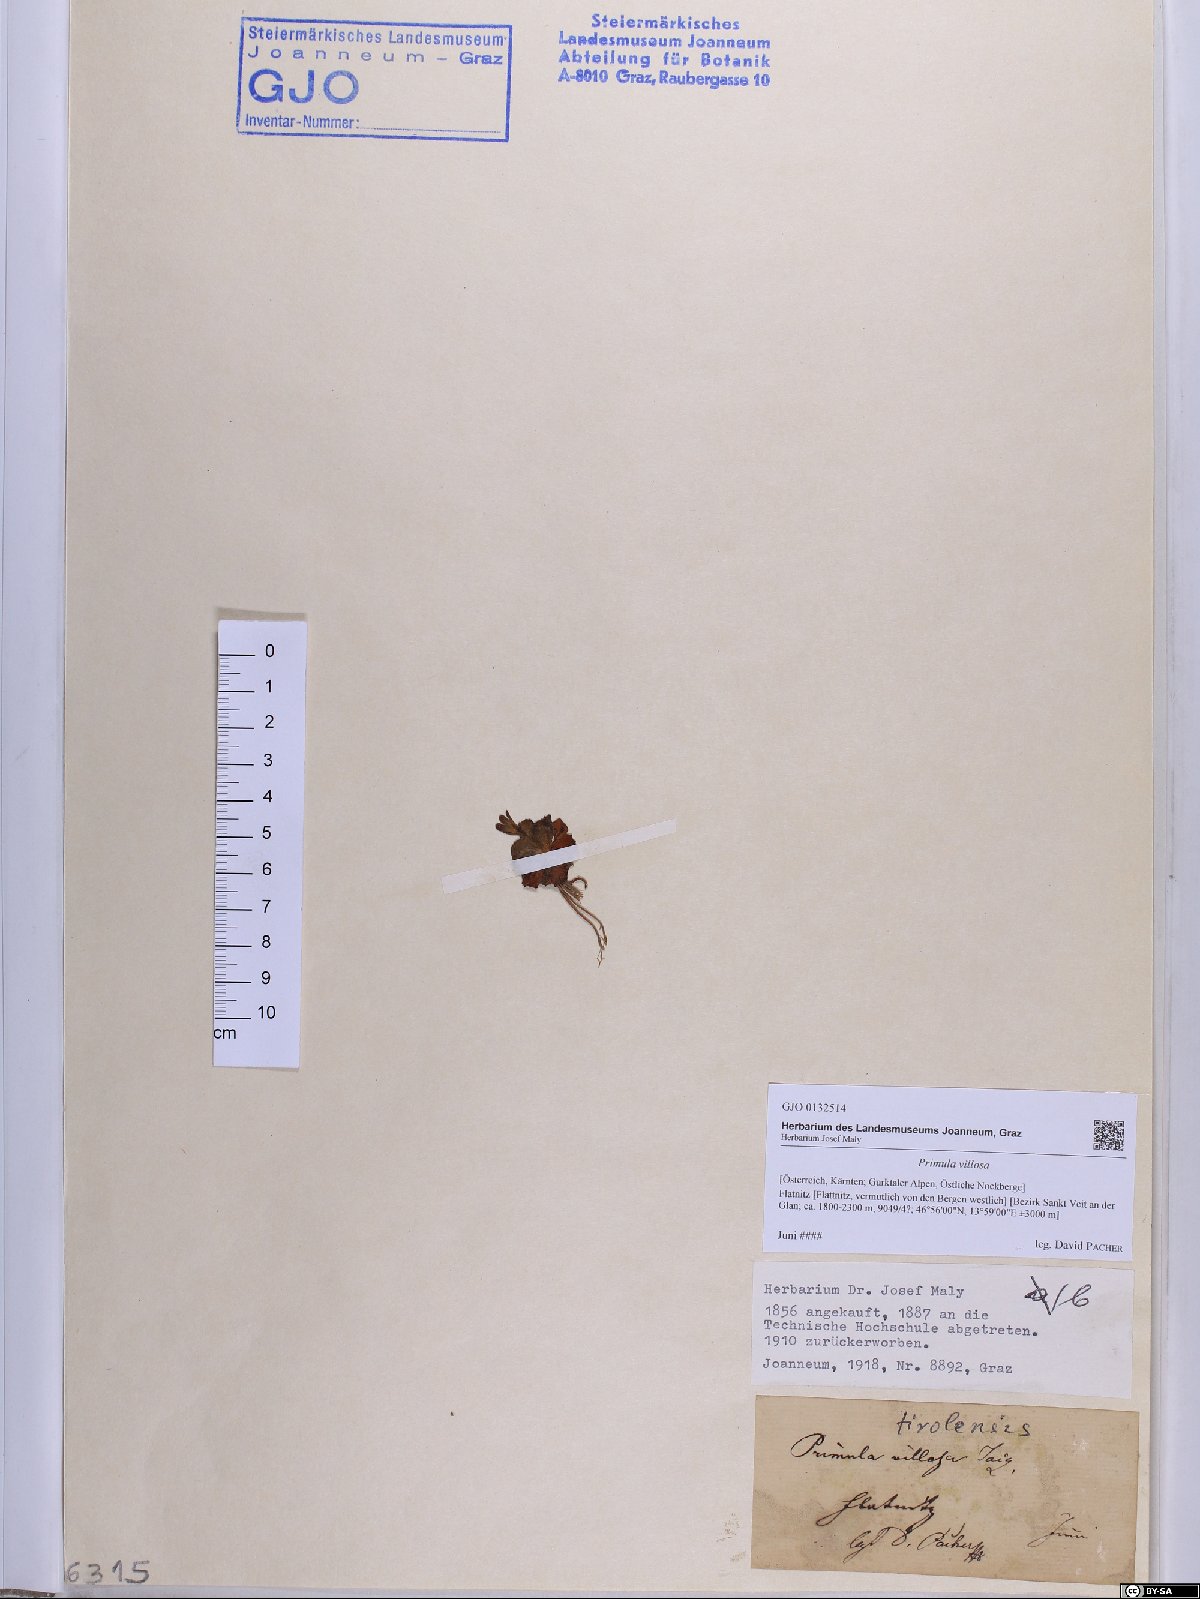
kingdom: Plantae
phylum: Tracheophyta
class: Magnoliopsida
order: Ericales
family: Primulaceae
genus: Primula
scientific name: Primula villosa
